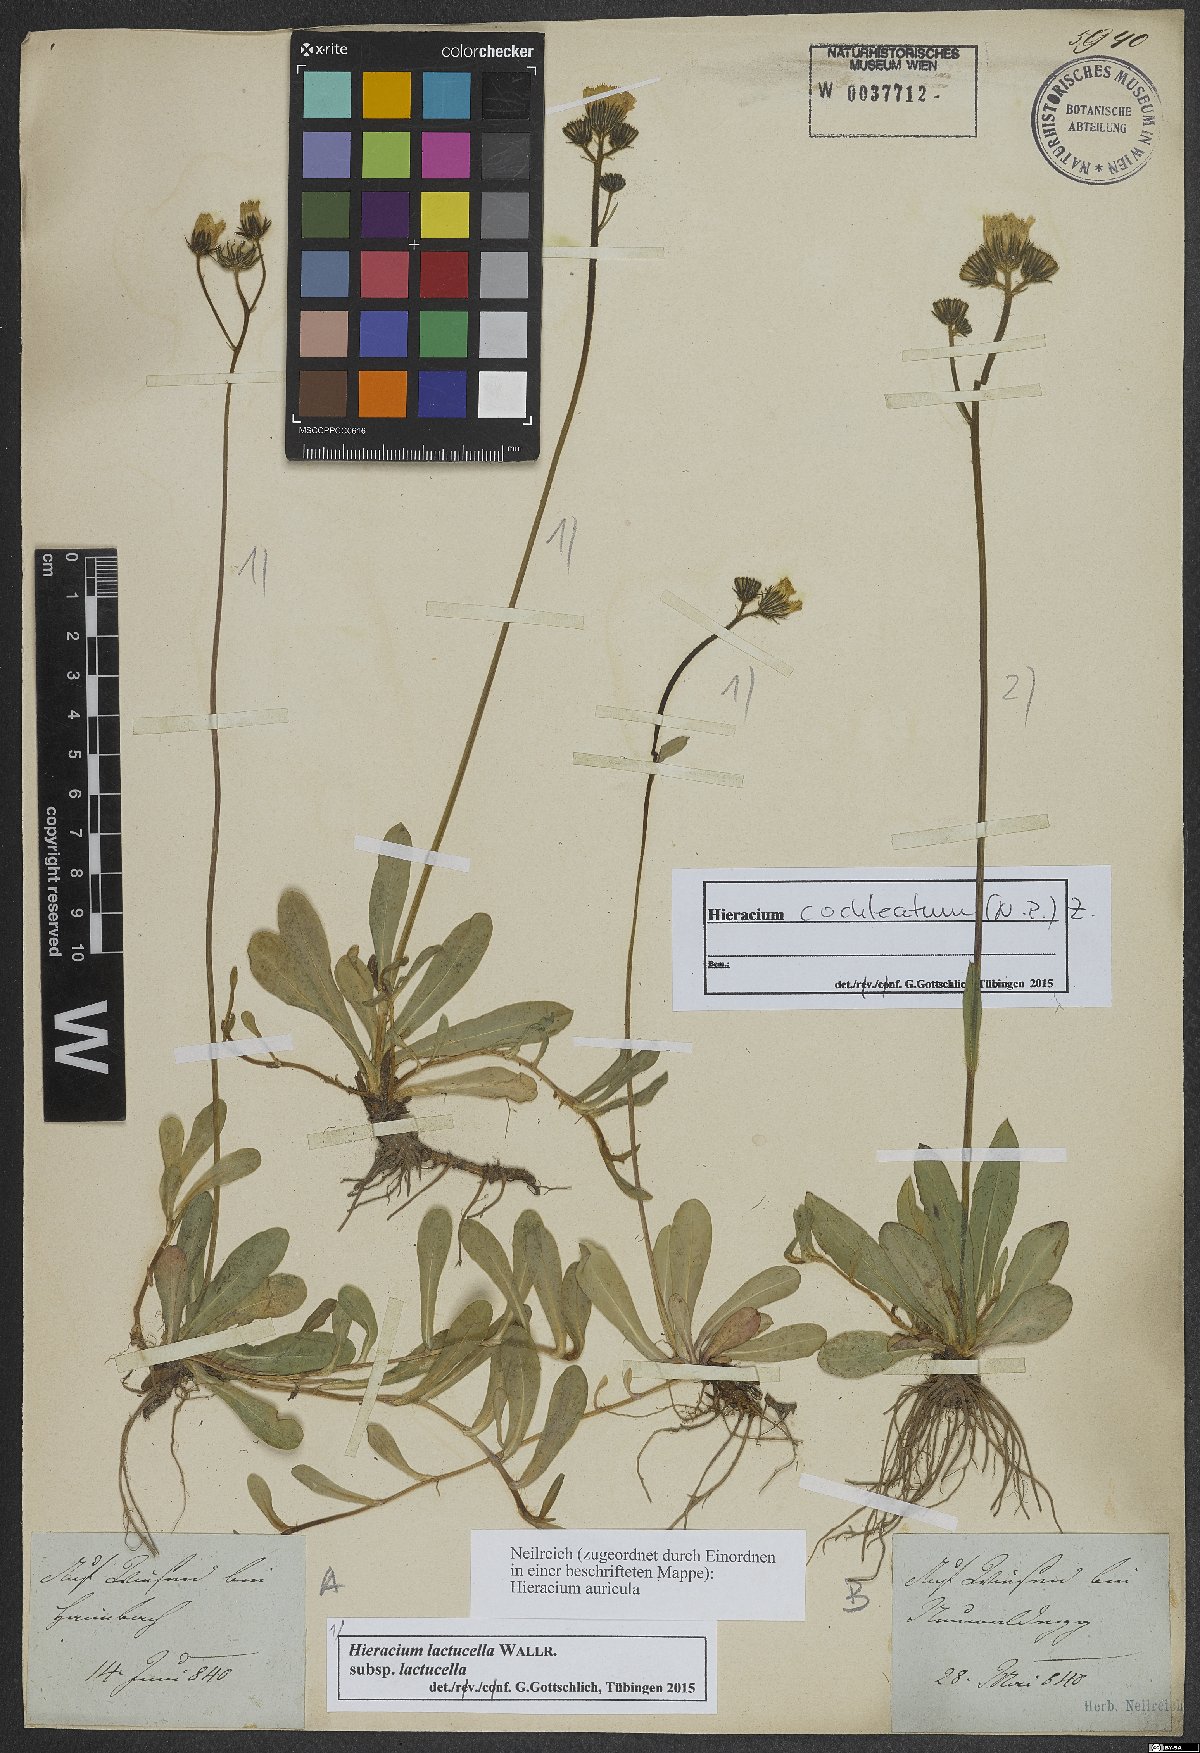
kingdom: Plantae
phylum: Tracheophyta
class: Magnoliopsida
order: Asterales
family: Asteraceae
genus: Pilosella
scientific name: Pilosella lactucella
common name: Glaucous fox-and-cubs
